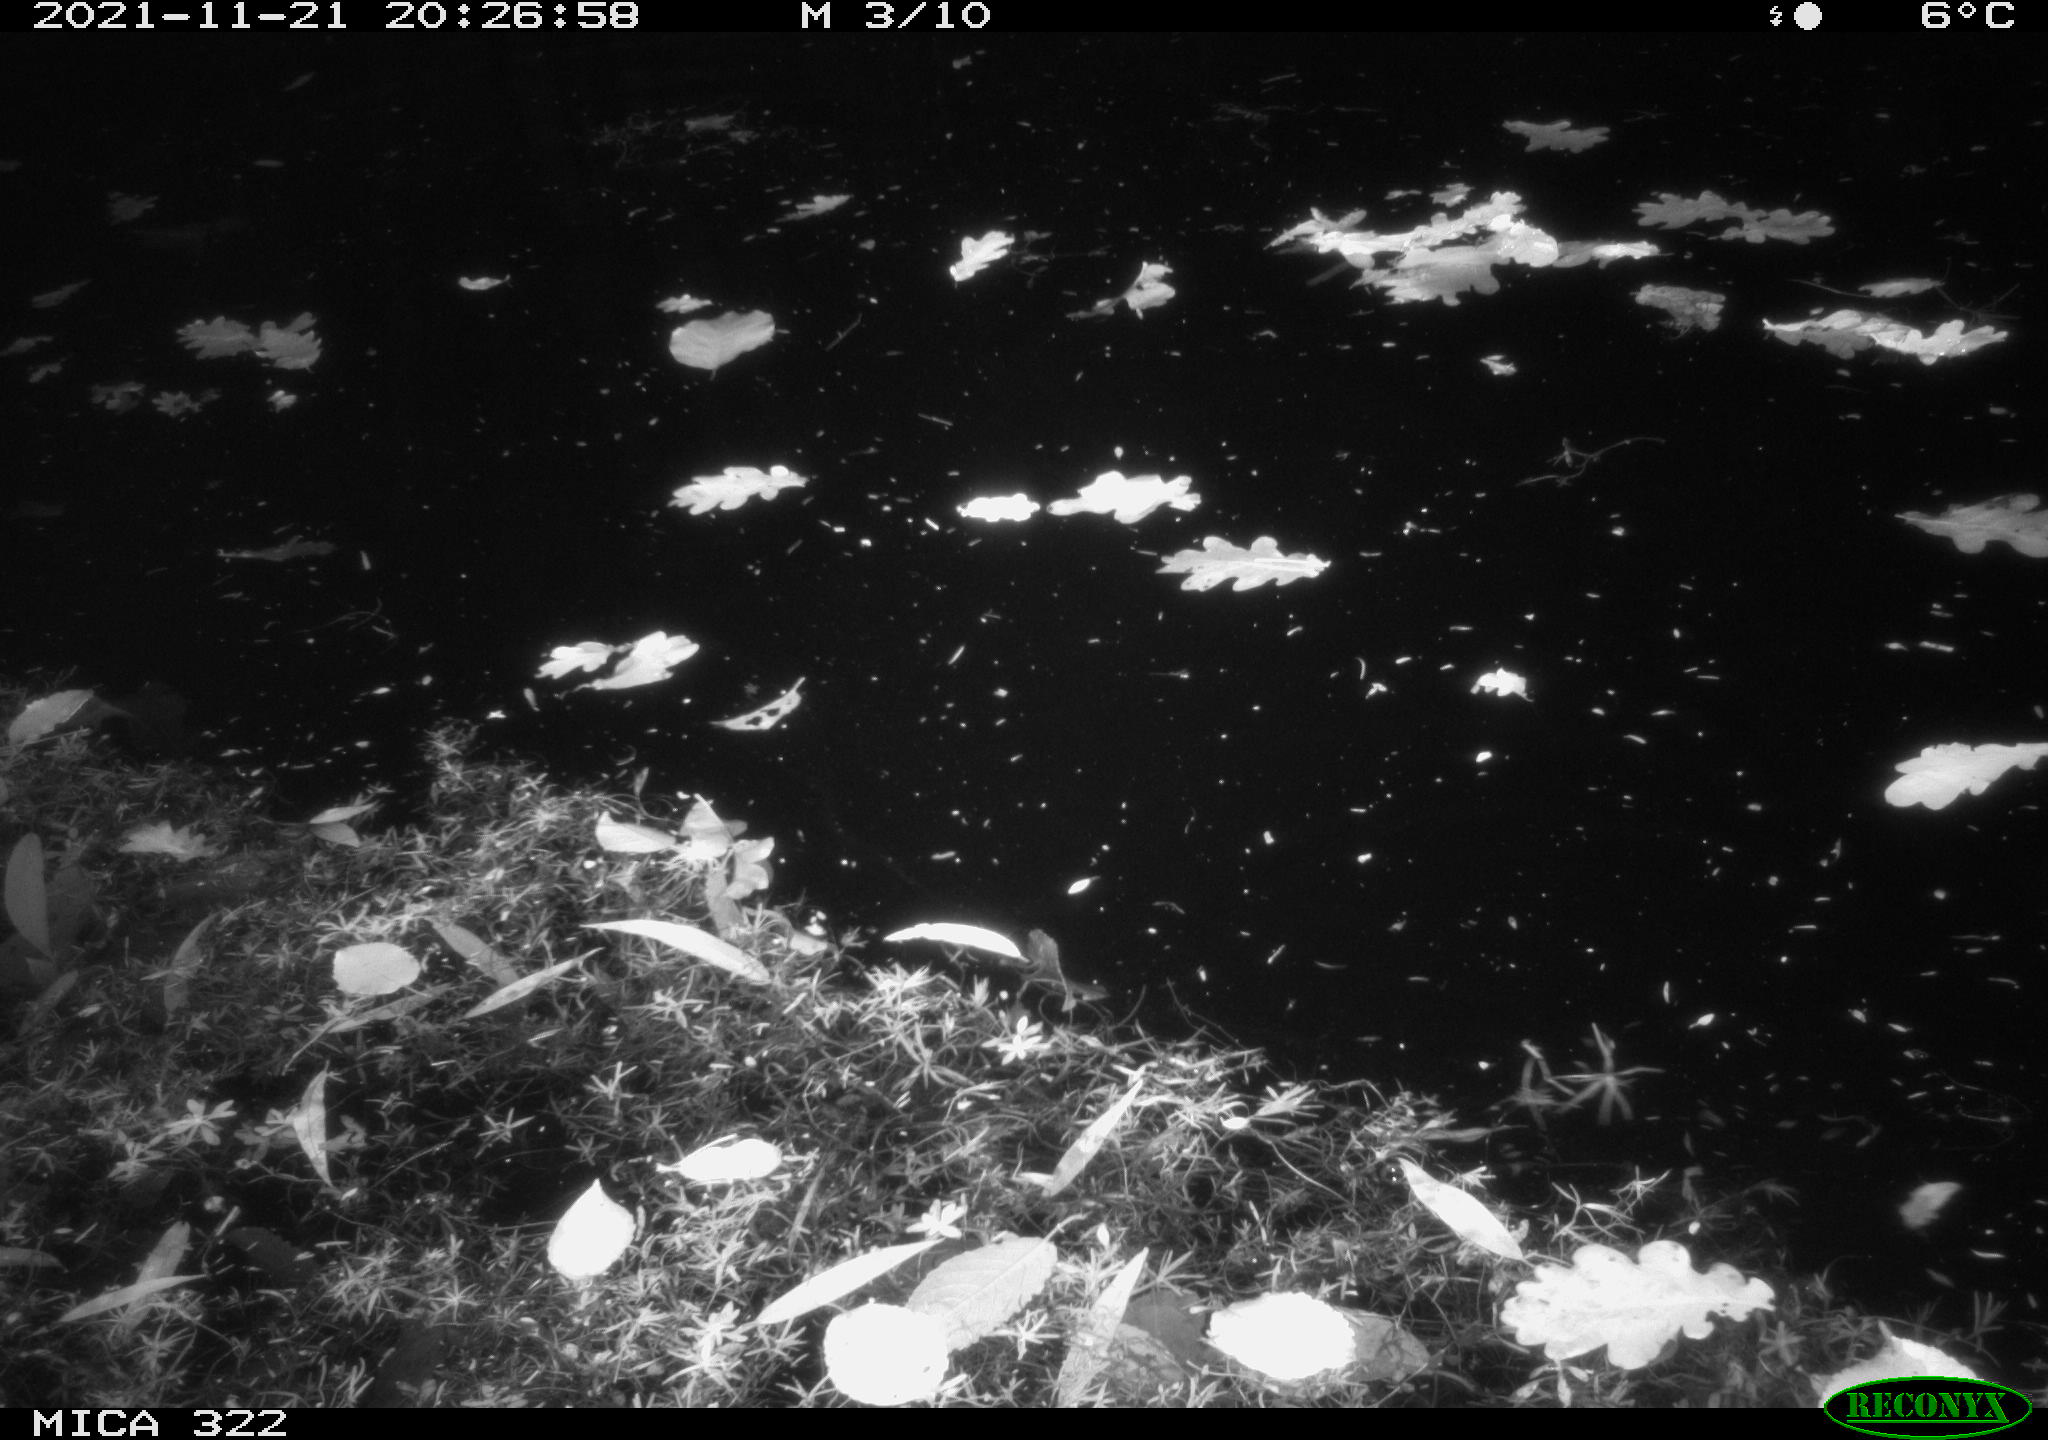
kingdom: Animalia
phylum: Chordata
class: Mammalia
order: Rodentia
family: Muridae
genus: Rattus
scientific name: Rattus norvegicus
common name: Brown rat
